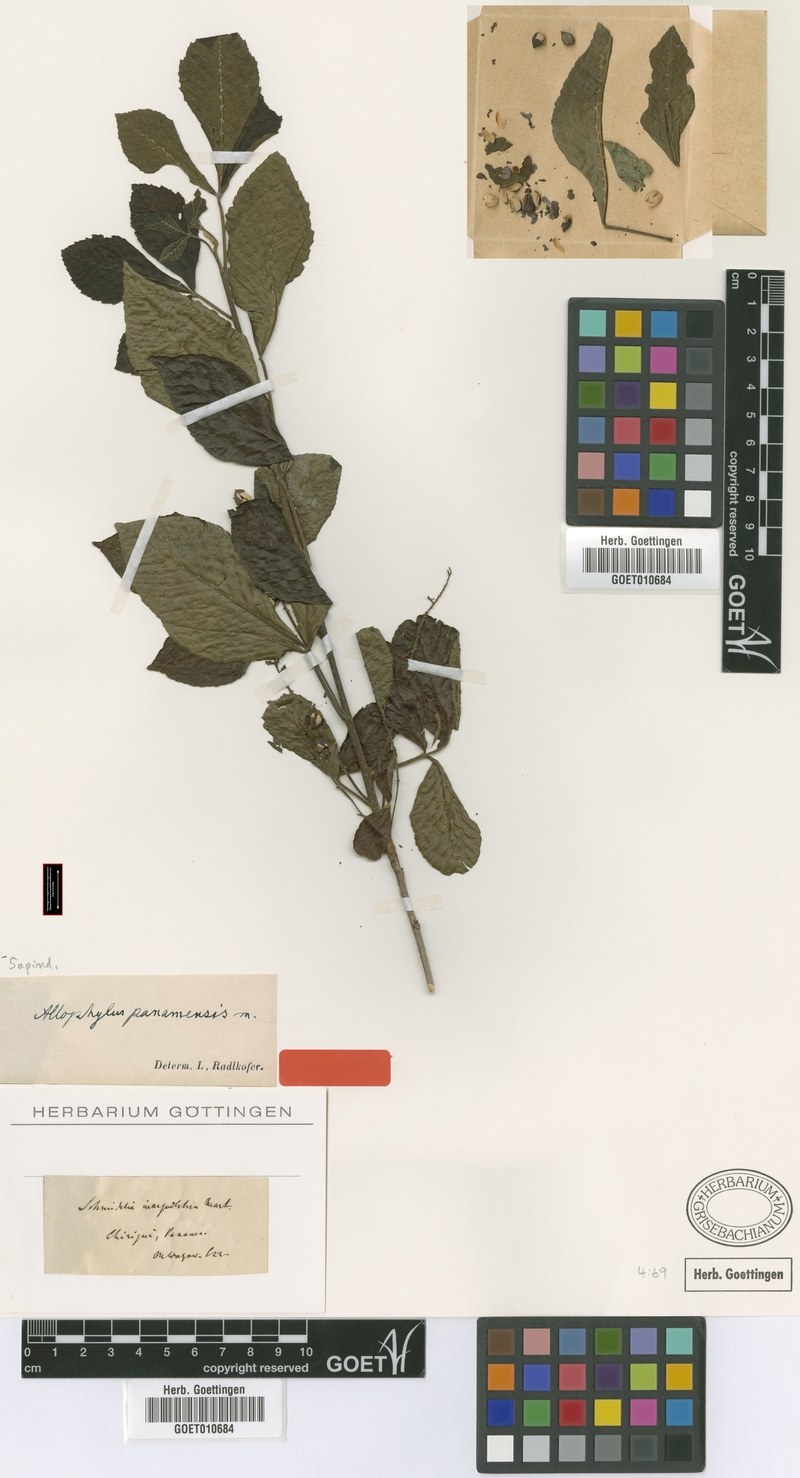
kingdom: Plantae
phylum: Tracheophyta
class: Magnoliopsida
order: Sapindales
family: Sapindaceae
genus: Allophylus
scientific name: Allophylus psilospermus
